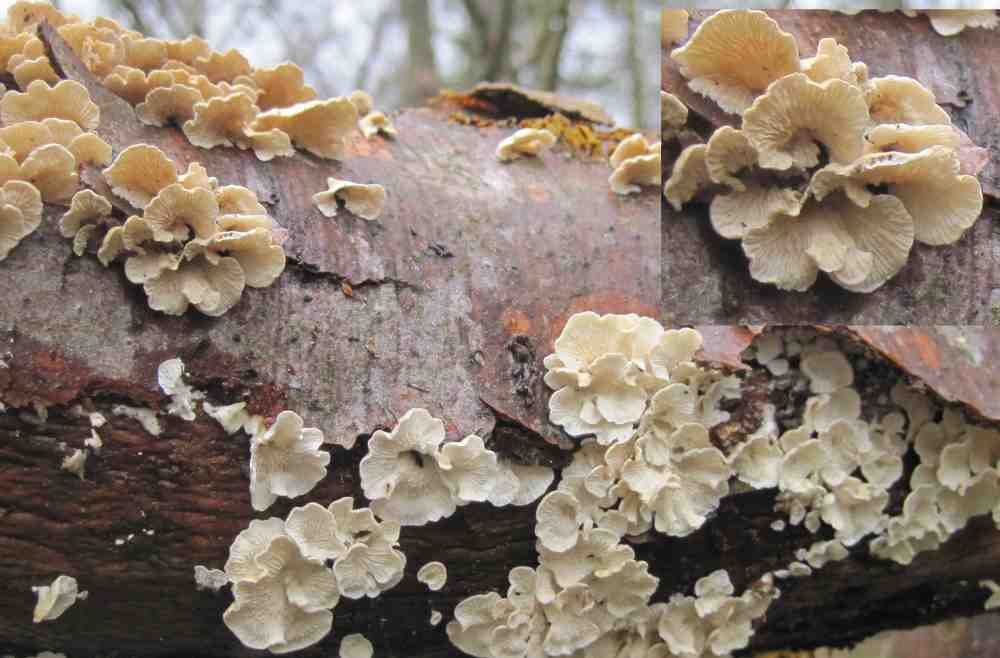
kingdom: Fungi
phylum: Basidiomycota
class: Agaricomycetes
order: Amylocorticiales
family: Amylocorticiaceae
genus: Plicaturopsis
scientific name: Plicaturopsis crispa
